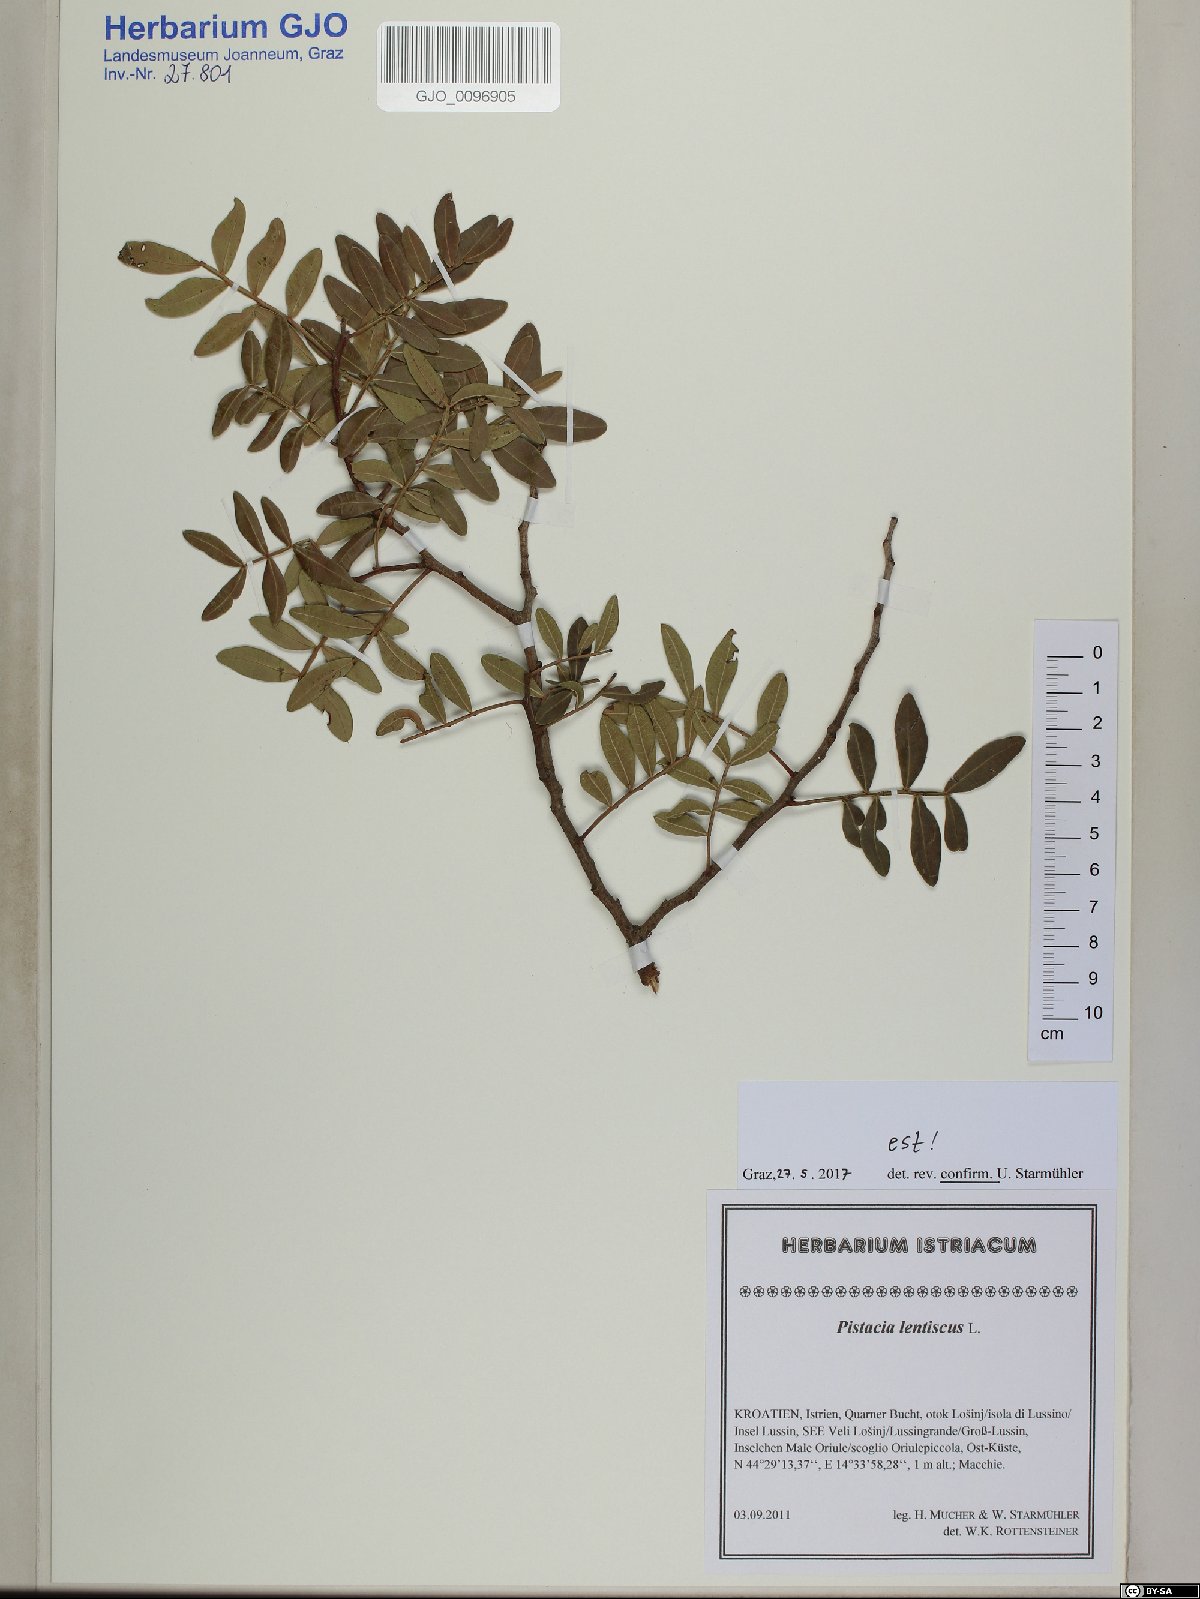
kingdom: Plantae
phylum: Tracheophyta
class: Magnoliopsida
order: Sapindales
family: Anacardiaceae
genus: Pistacia
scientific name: Pistacia lentiscus
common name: Lentisk
